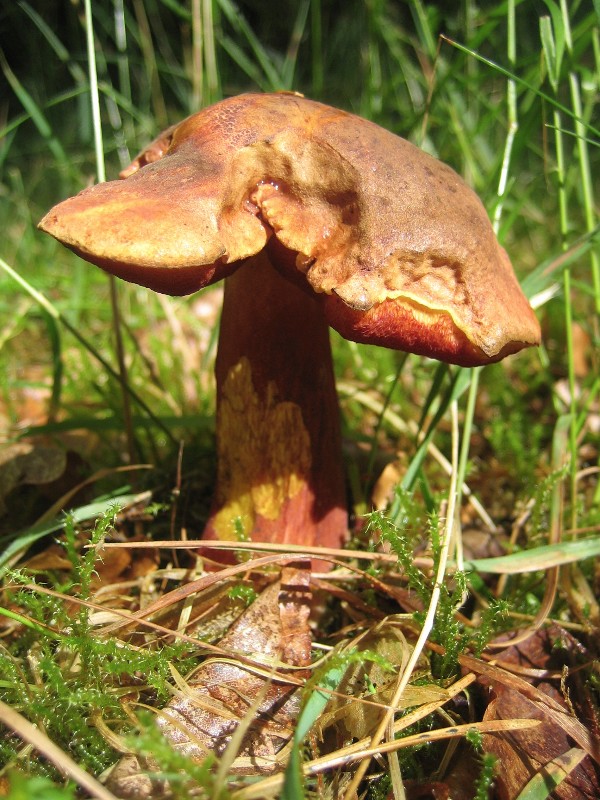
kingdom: Fungi
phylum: Basidiomycota
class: Agaricomycetes
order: Boletales
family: Boletaceae
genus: Neoboletus
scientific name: Neoboletus erythropus
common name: punktstokket indigorørhat
